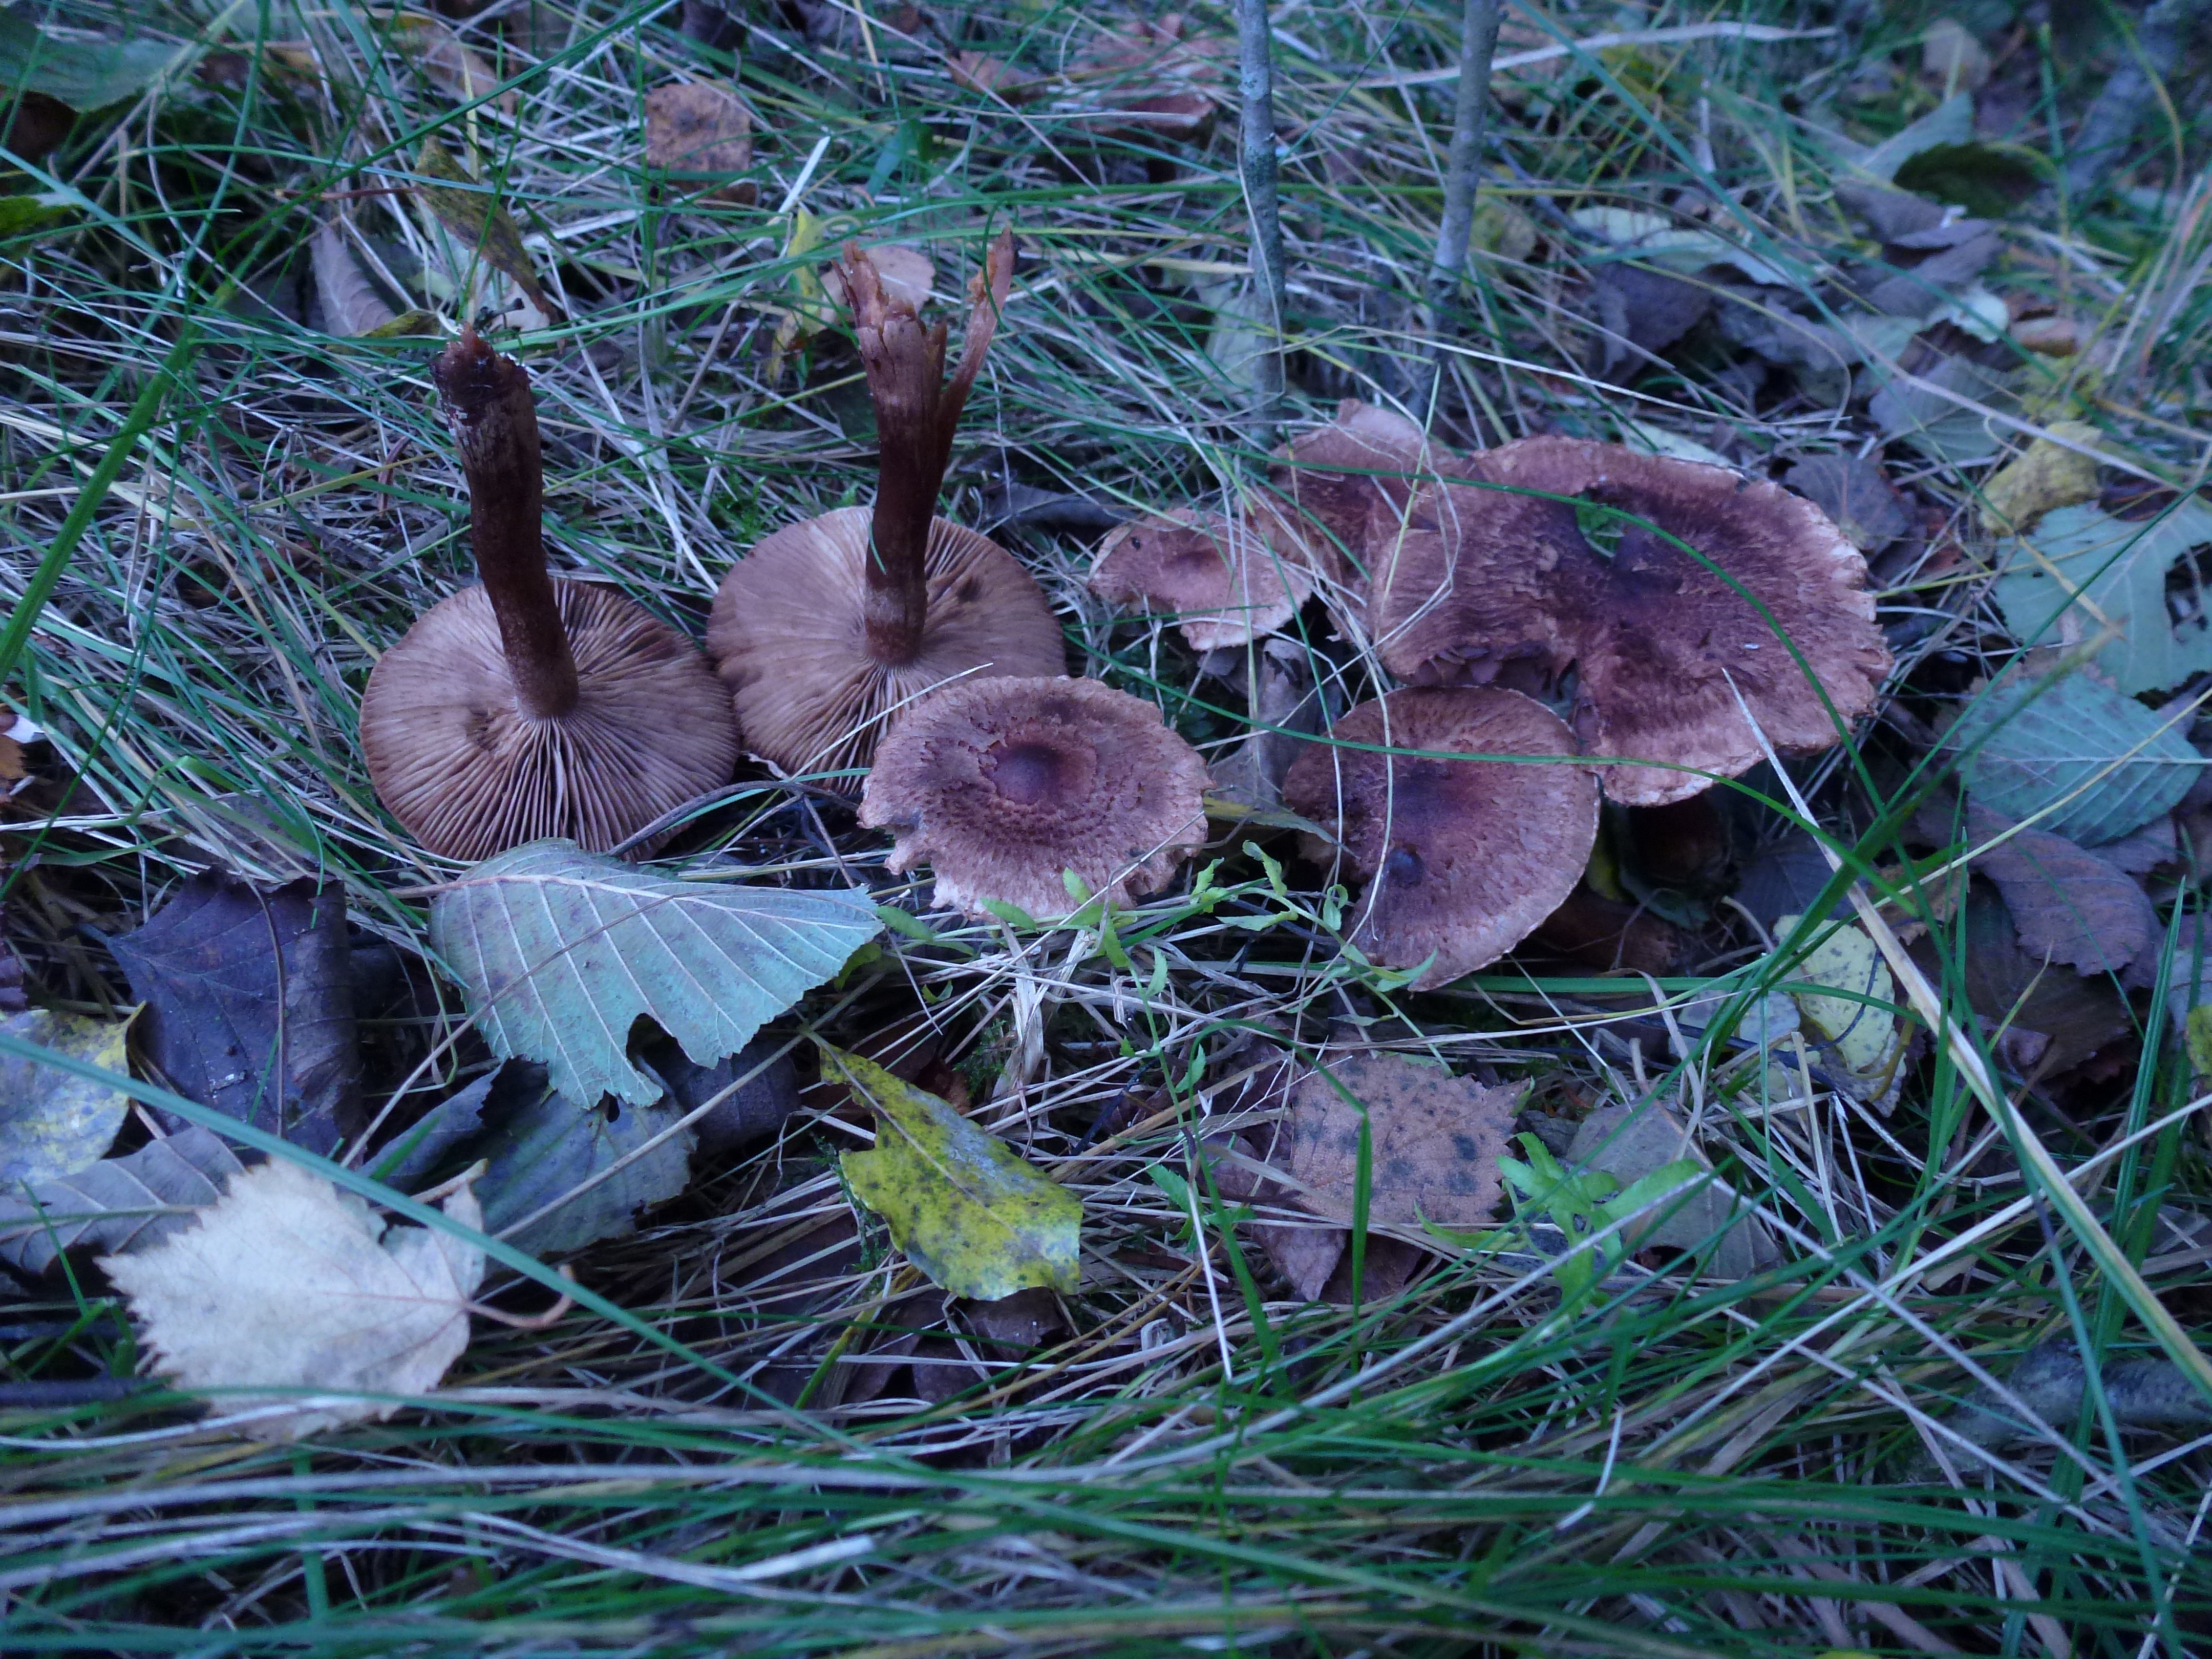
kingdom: Fungi
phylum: Basidiomycota
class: Agaricomycetes
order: Agaricales
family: Tricholomataceae
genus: Tricholoma
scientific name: Tricholoma vaccinum
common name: Scaly knight
